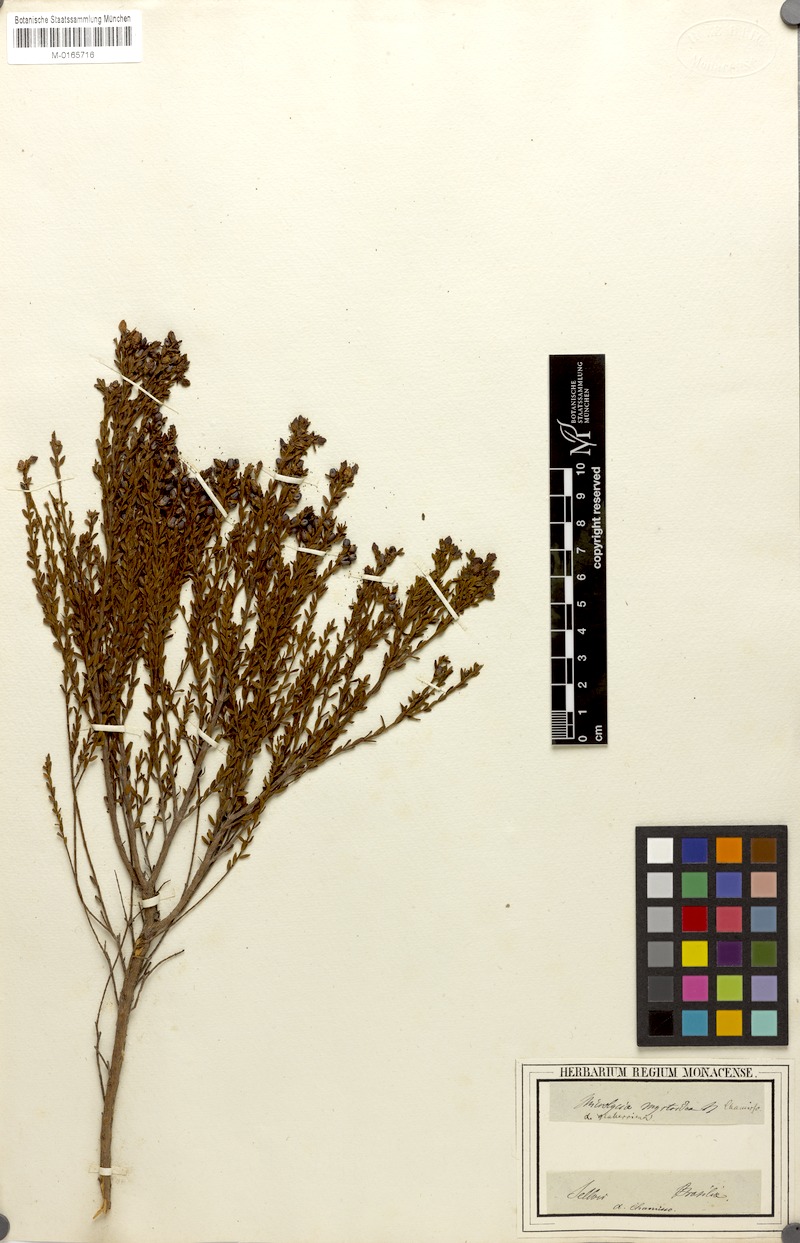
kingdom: Plantae
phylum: Tracheophyta
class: Magnoliopsida
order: Myrtales
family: Melastomataceae
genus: Microlicia
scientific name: Microlicia myrtoidea
